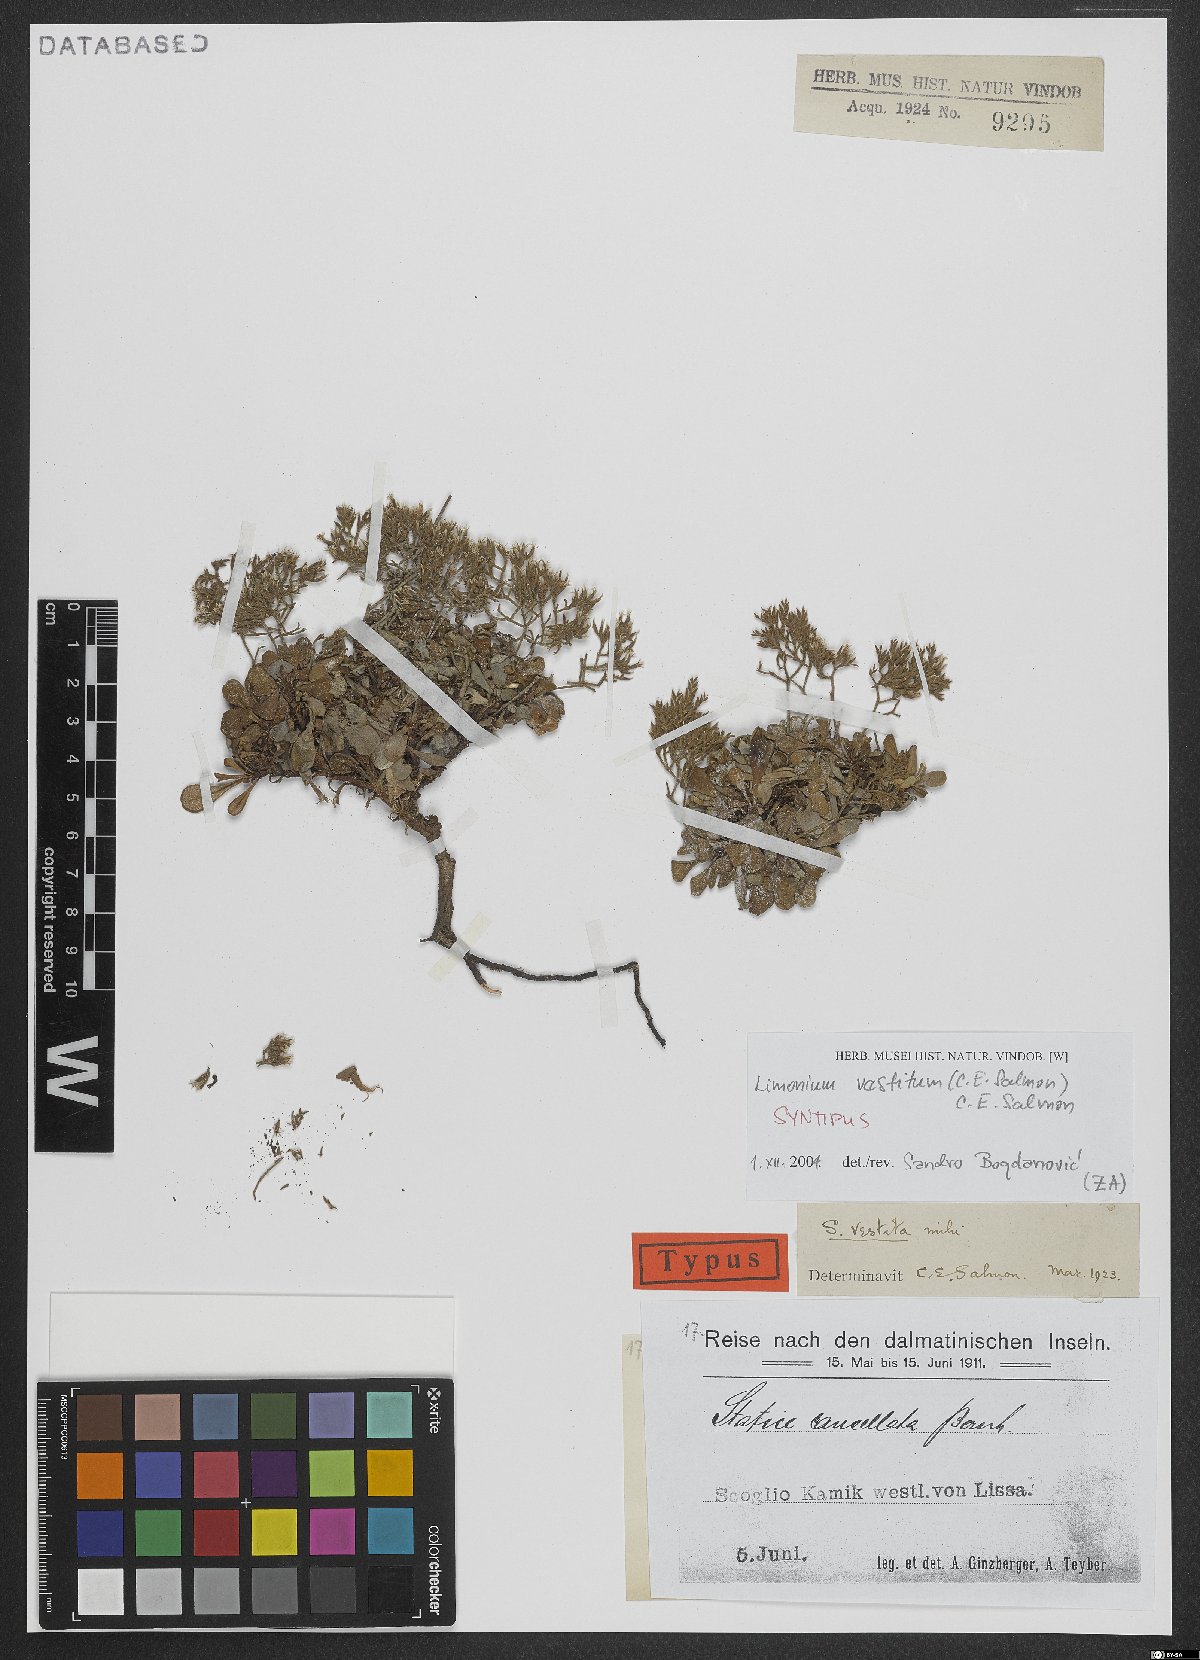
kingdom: Plantae
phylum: Tracheophyta
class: Magnoliopsida
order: Caryophyllales
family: Plumbaginaceae
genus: Limonium
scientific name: Limonium vestitum
